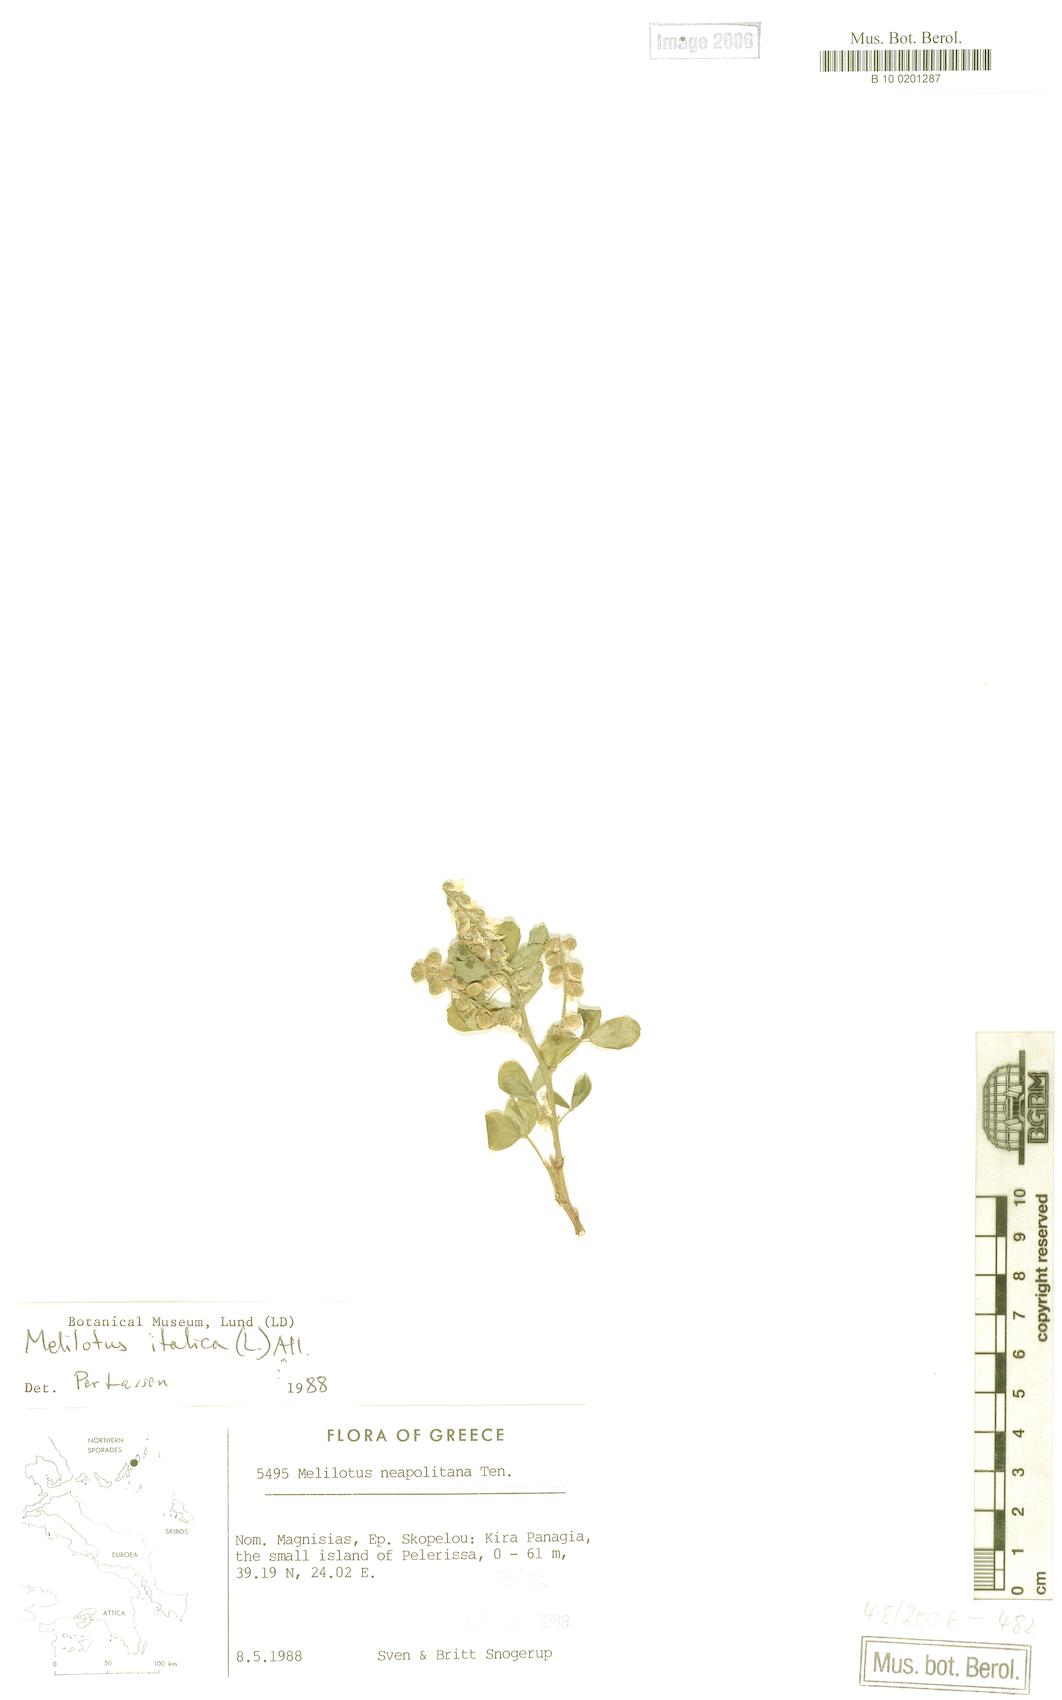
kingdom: Plantae
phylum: Tracheophyta
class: Magnoliopsida
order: Fabales
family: Fabaceae
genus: Melilotus
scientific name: Melilotus italicus
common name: Italian melilot
